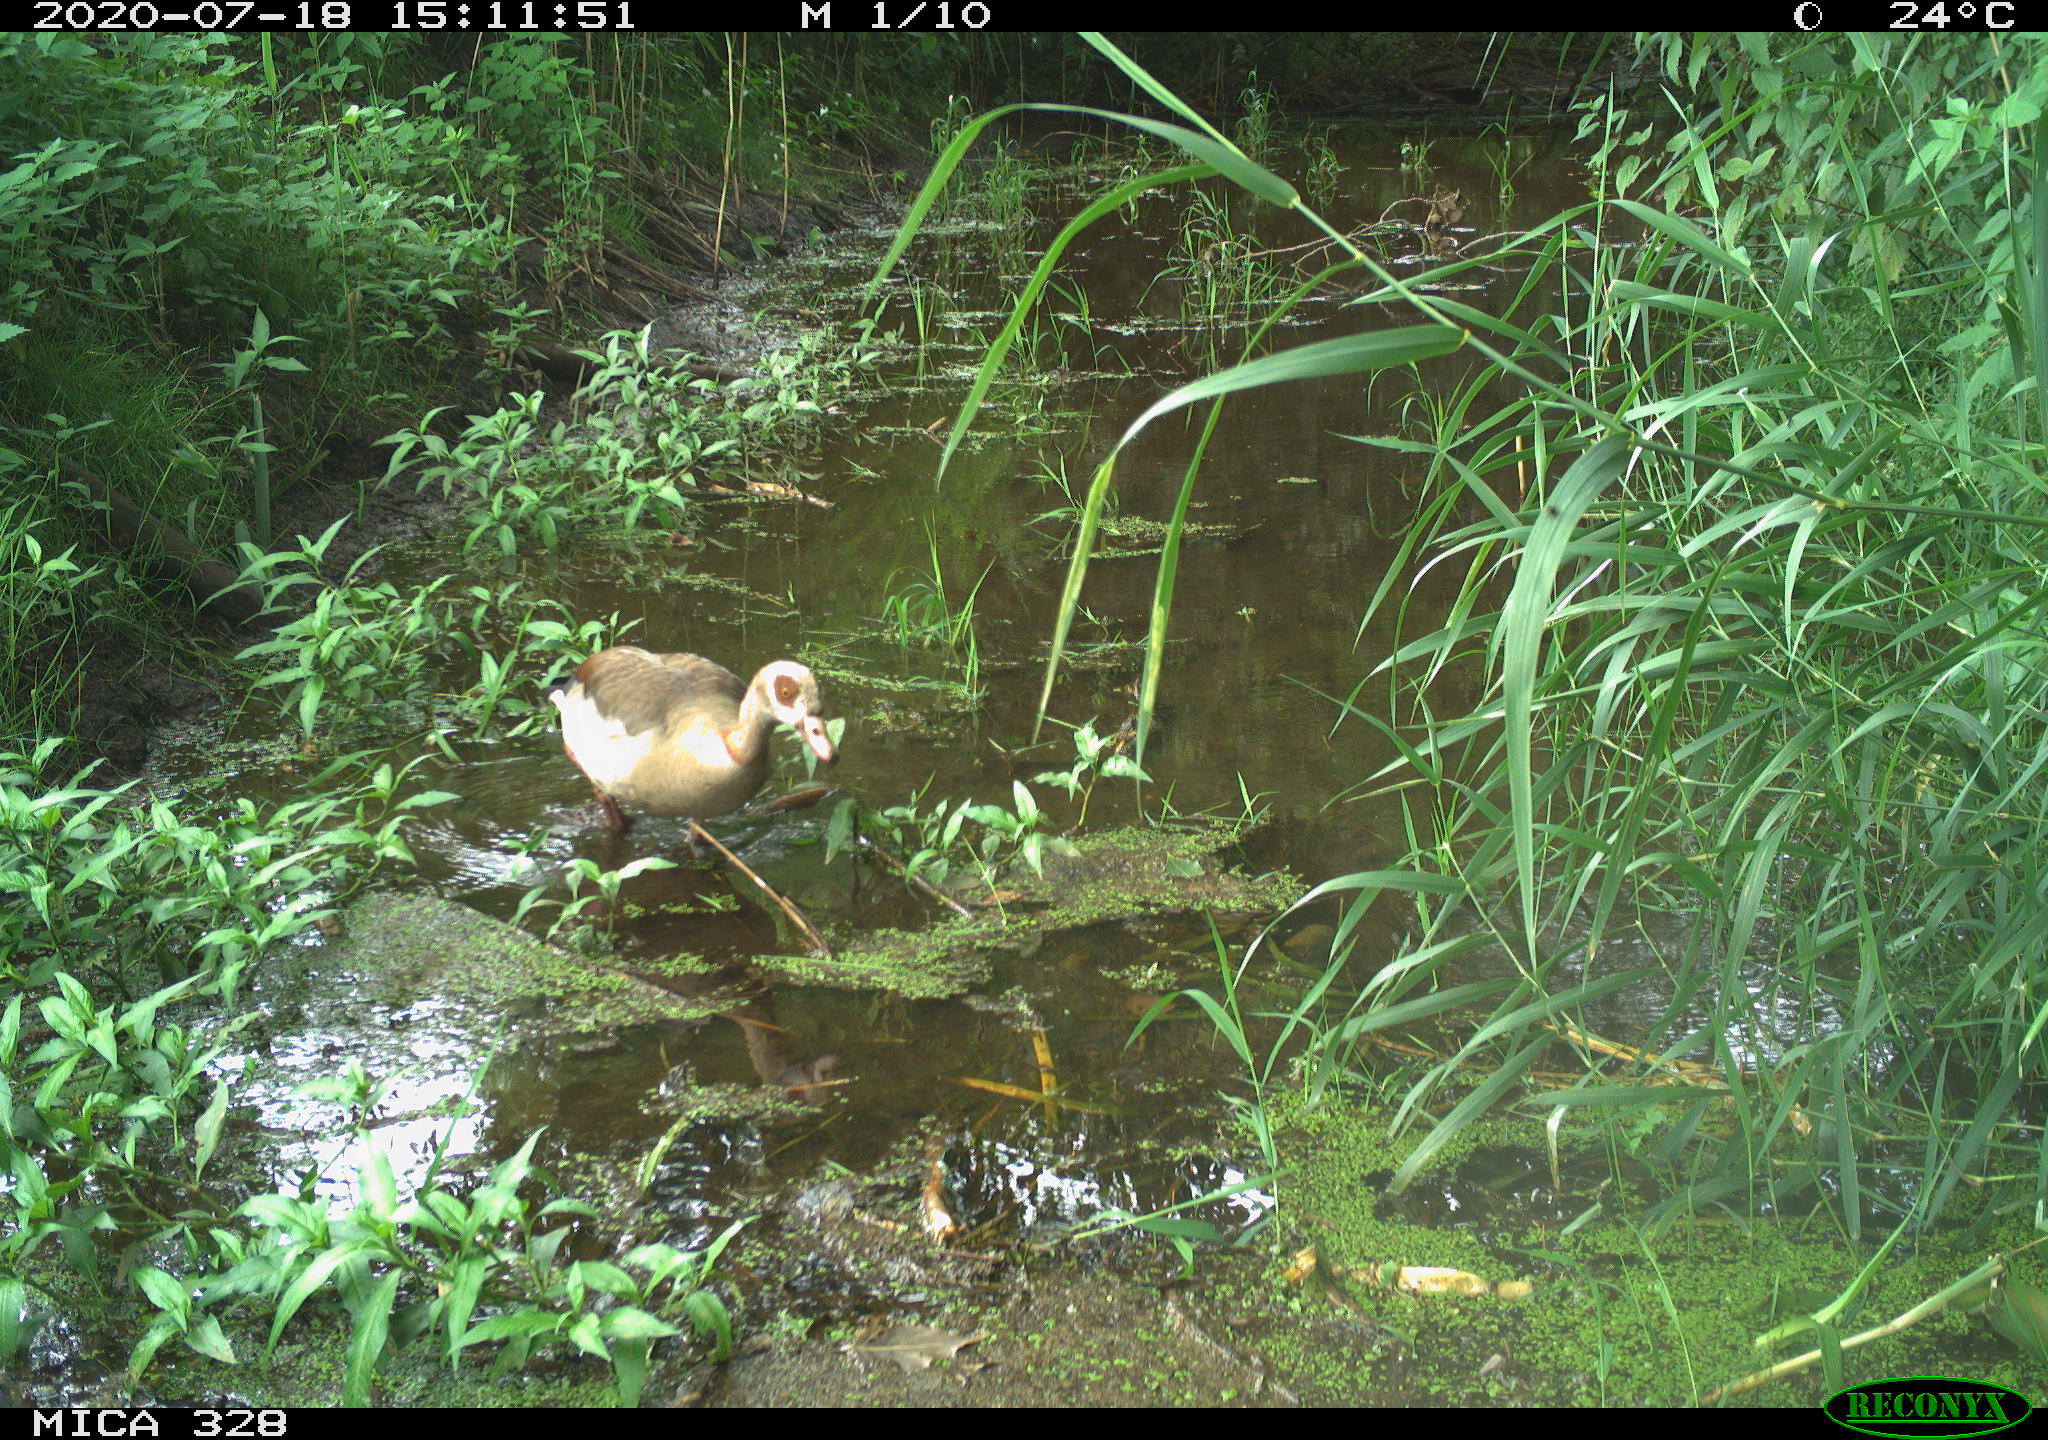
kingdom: Animalia
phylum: Chordata
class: Aves
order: Anseriformes
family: Anatidae
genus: Alopochen
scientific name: Alopochen aegyptiaca
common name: Egyptian goose
